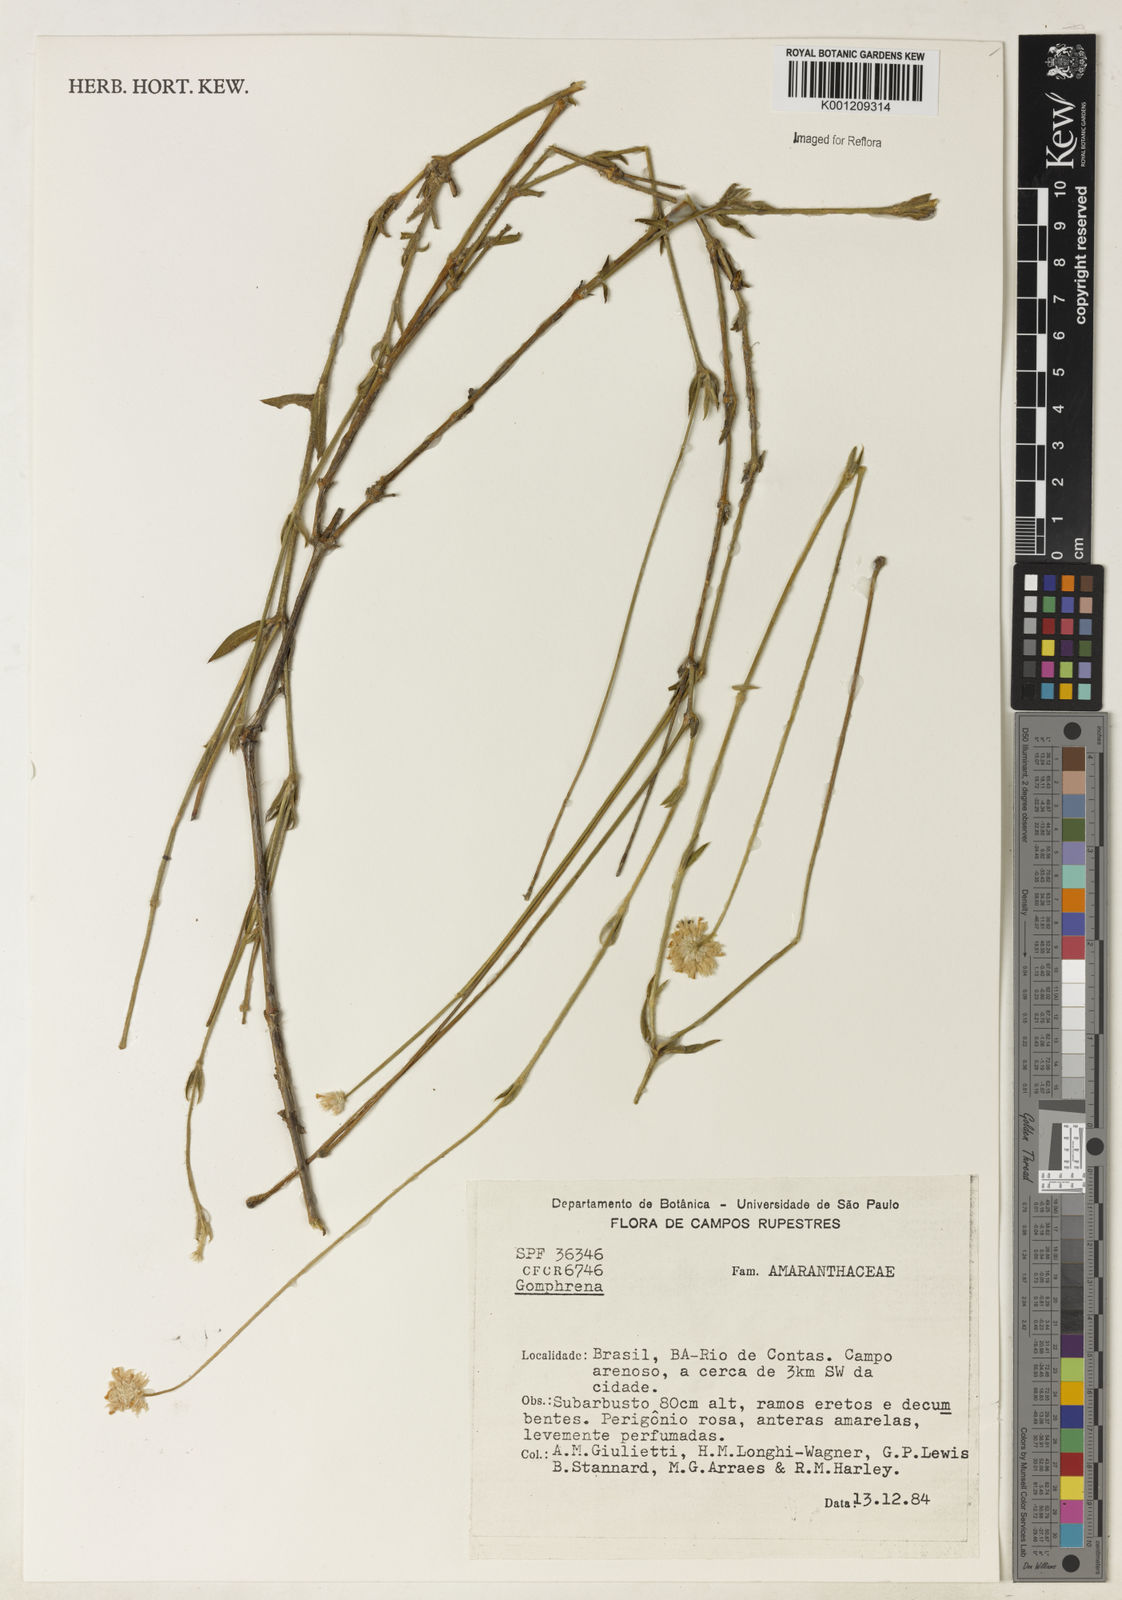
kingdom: Plantae
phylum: Tracheophyta
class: Magnoliopsida
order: Caryophyllales
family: Amaranthaceae
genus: Gomphrena
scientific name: Gomphrena
